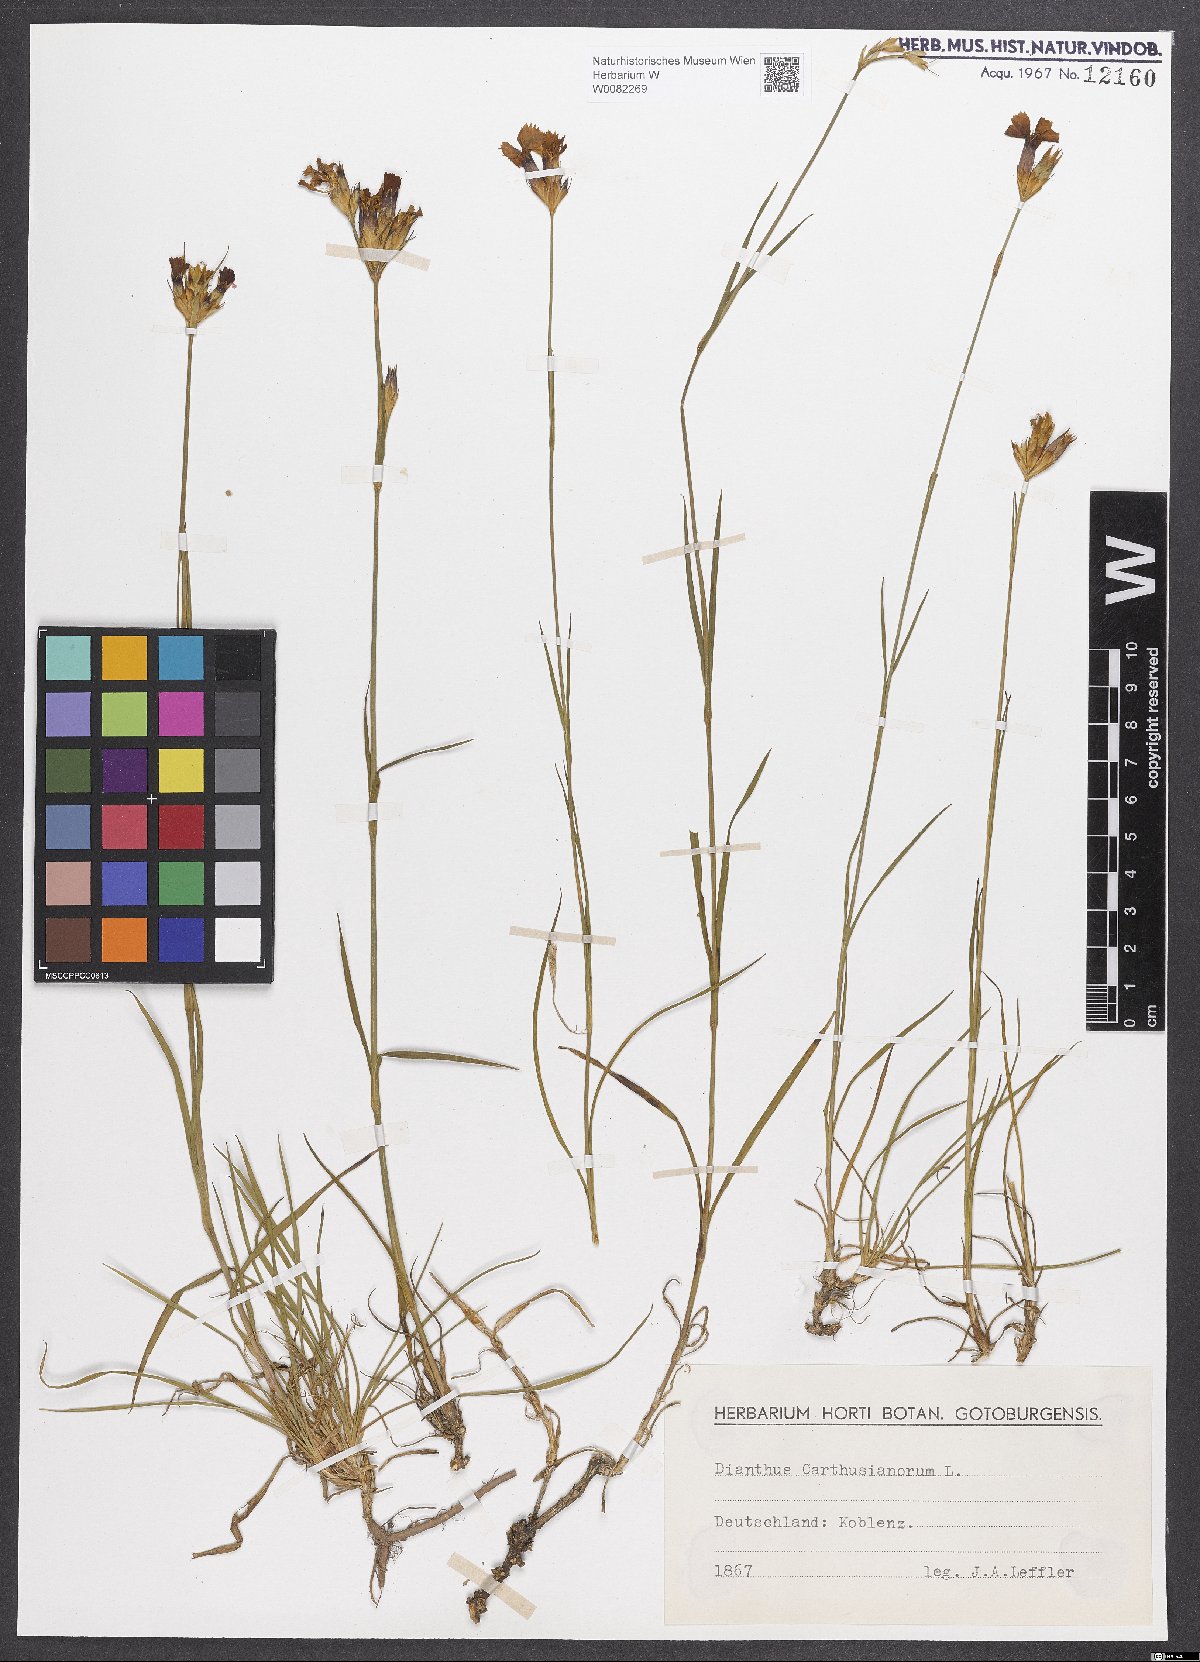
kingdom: Plantae
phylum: Tracheophyta
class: Magnoliopsida
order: Caryophyllales
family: Caryophyllaceae
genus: Dianthus
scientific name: Dianthus carthusianorum
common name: Carthusian pink
